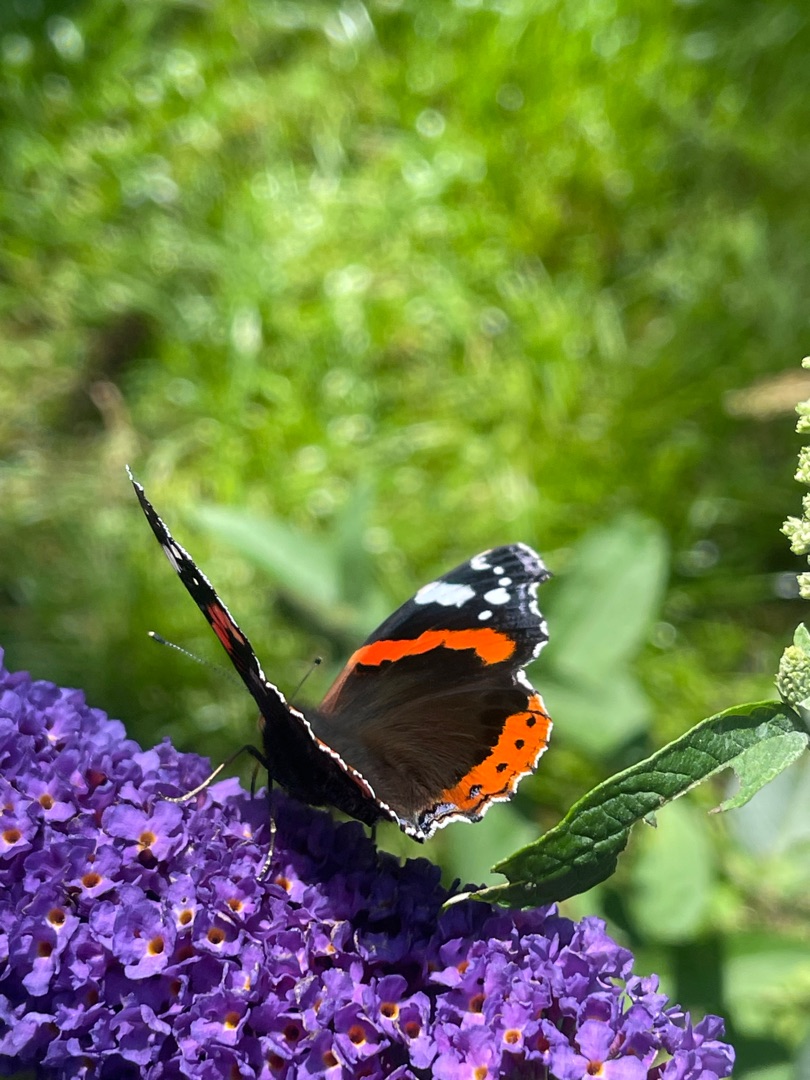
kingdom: Animalia
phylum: Arthropoda
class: Insecta
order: Lepidoptera
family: Nymphalidae
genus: Vanessa
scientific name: Vanessa atalanta
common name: Admiral
